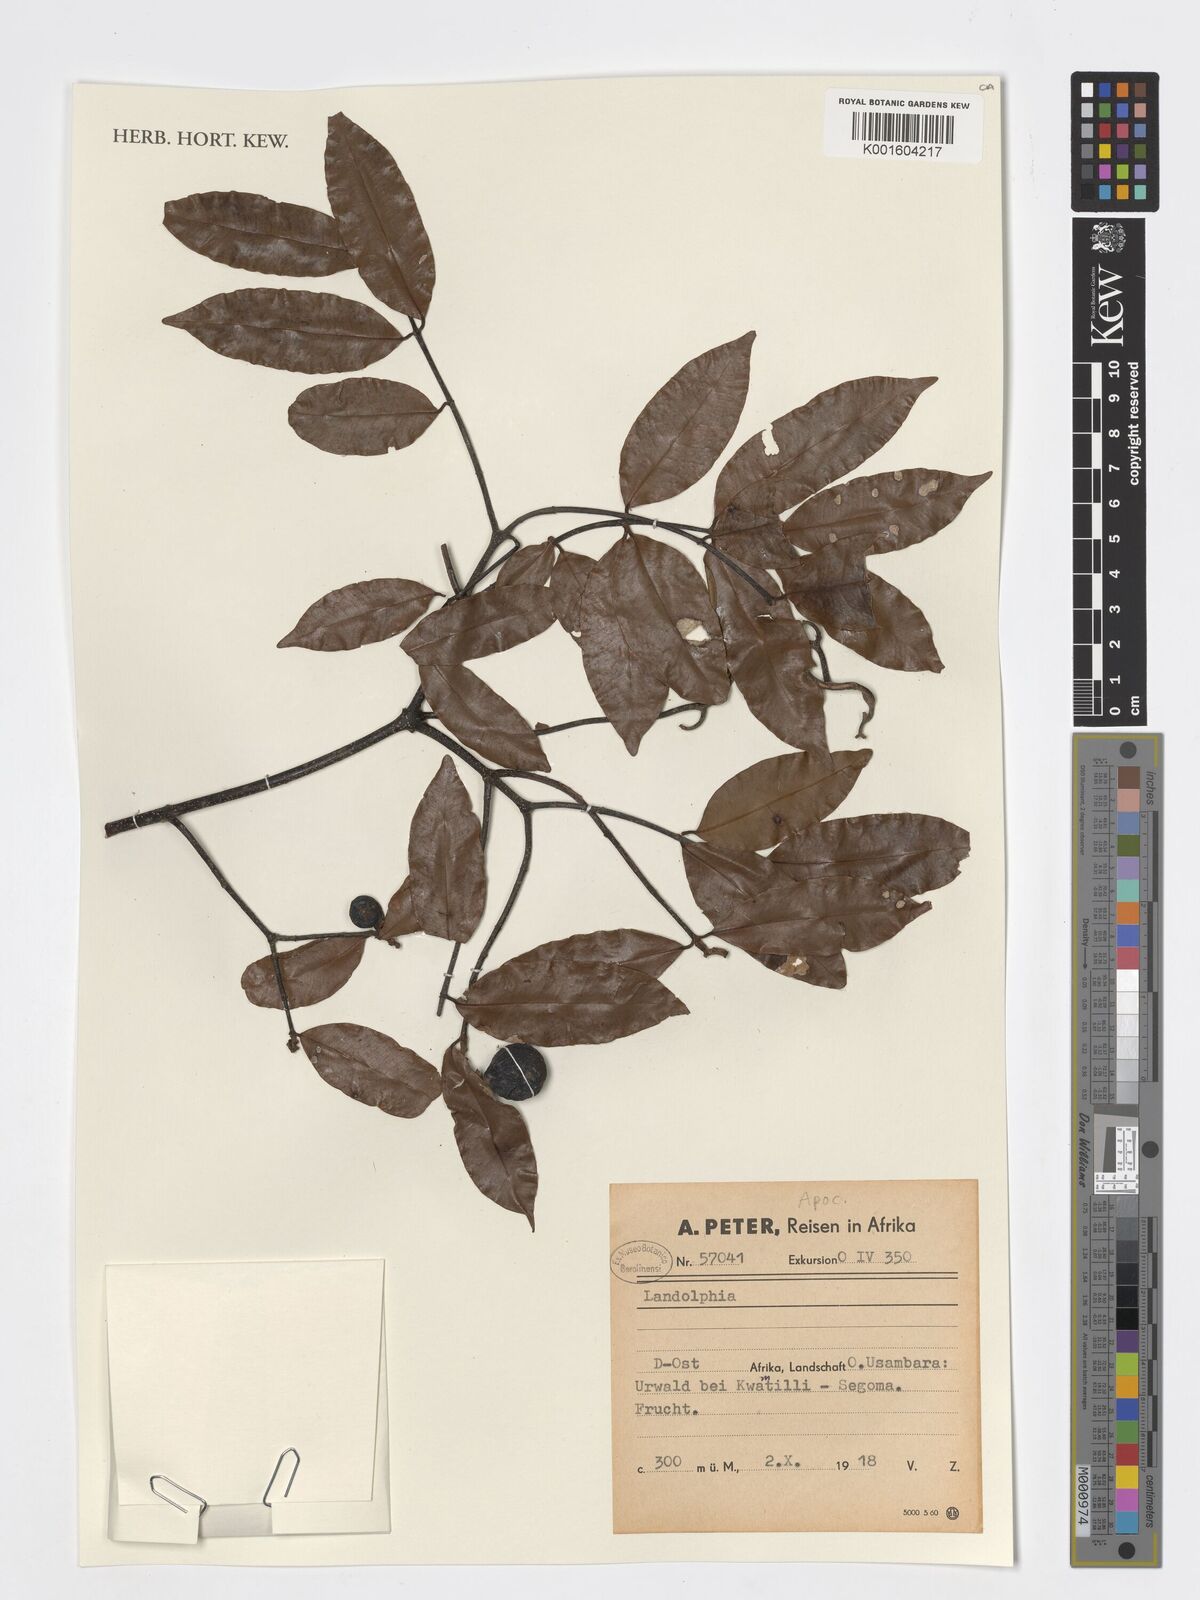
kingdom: Plantae
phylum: Tracheophyta
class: Magnoliopsida
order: Gentianales
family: Apocynaceae
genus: Landolphia
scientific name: Landolphia
